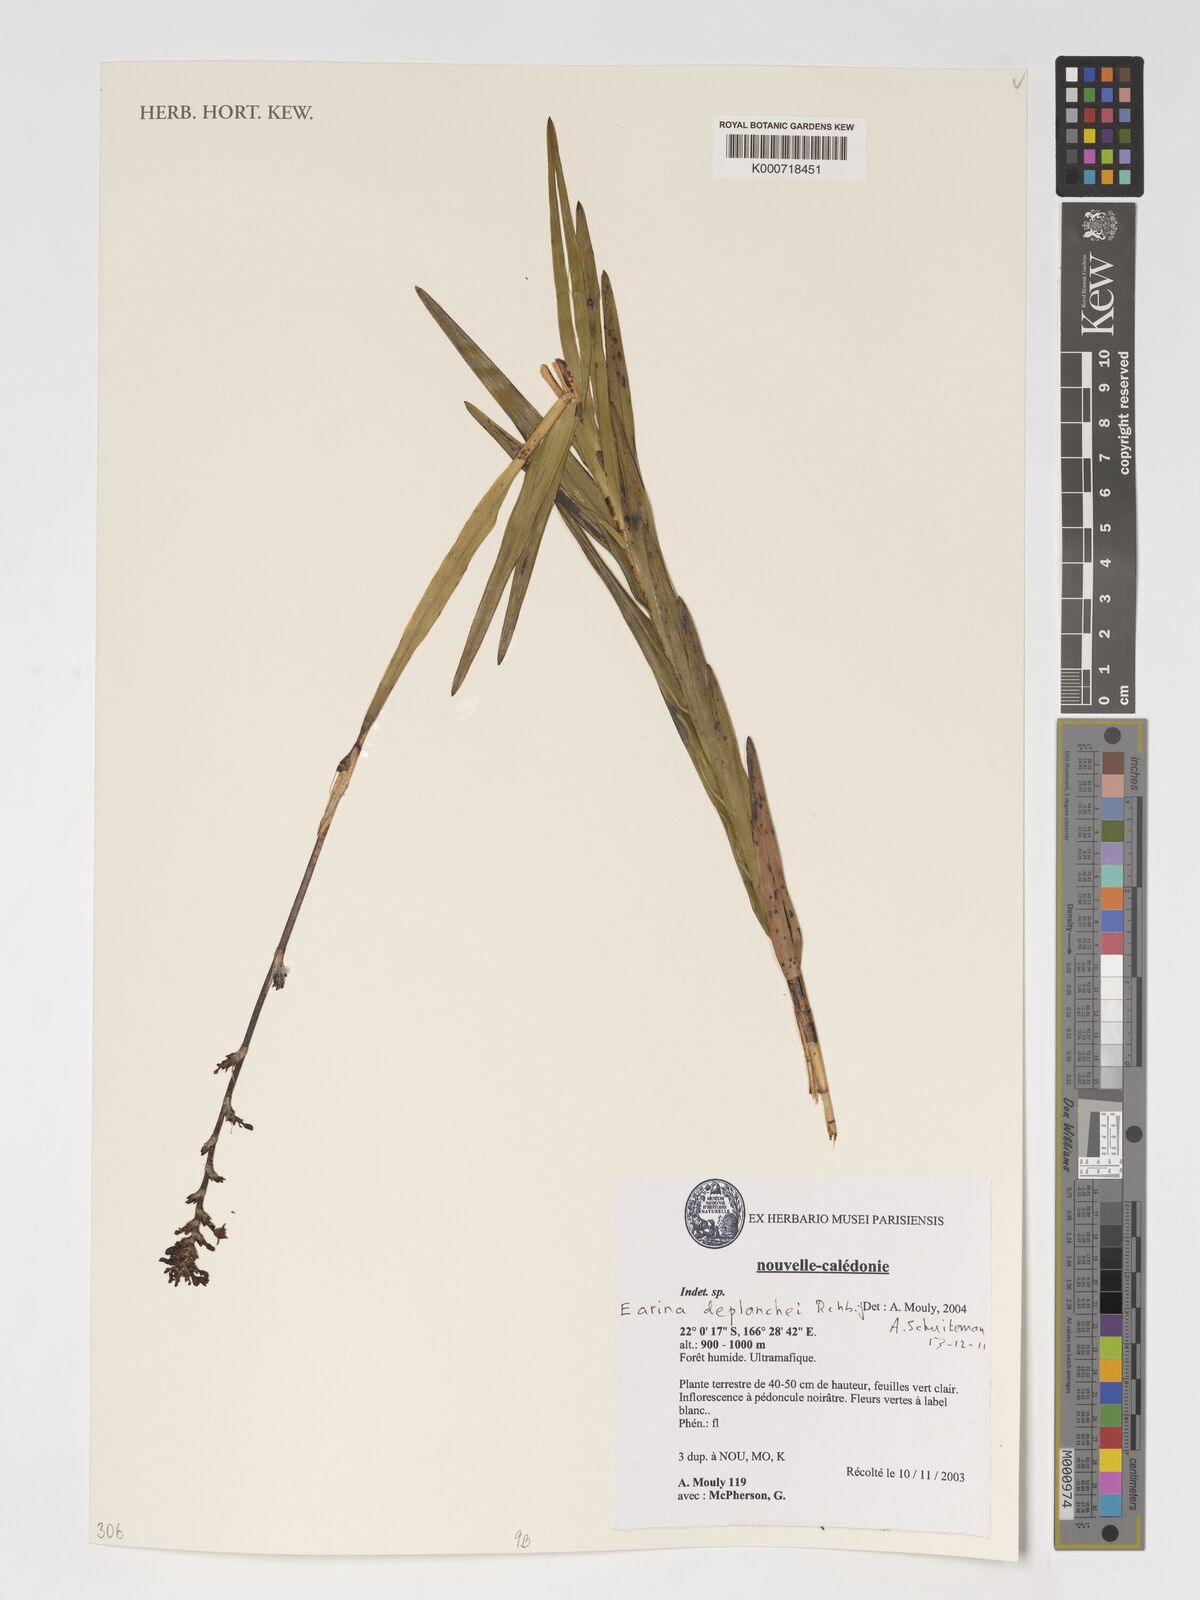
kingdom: Plantae
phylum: Tracheophyta
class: Liliopsida
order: Asparagales
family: Orchidaceae
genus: Earina
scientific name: Earina deplanchei
